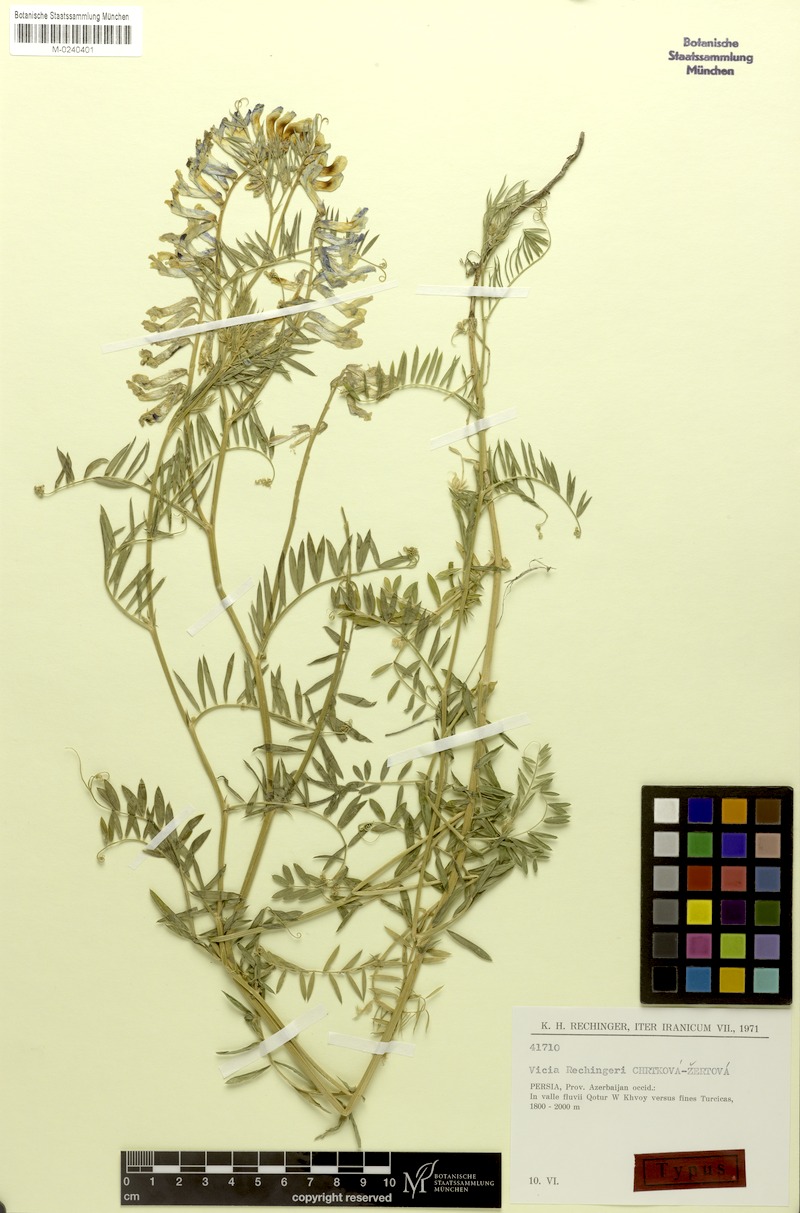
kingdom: Plantae
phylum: Tracheophyta
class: Magnoliopsida
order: Fabales
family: Fabaceae
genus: Vicia
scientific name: Vicia canescens
